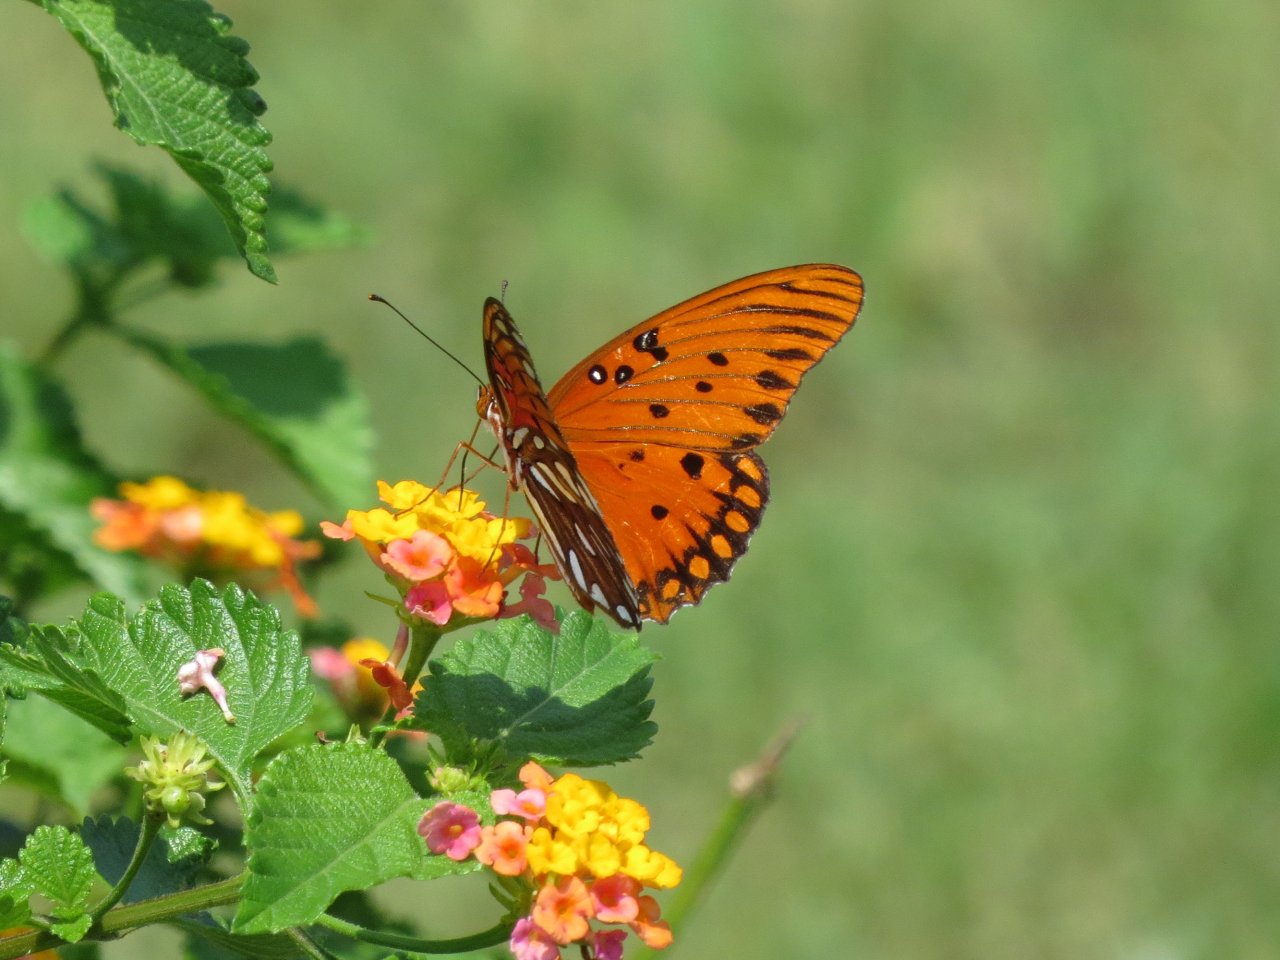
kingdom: Animalia
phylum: Arthropoda
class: Insecta
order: Lepidoptera
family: Nymphalidae
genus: Dione
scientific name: Dione vanillae
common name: Gulf Fritillary
